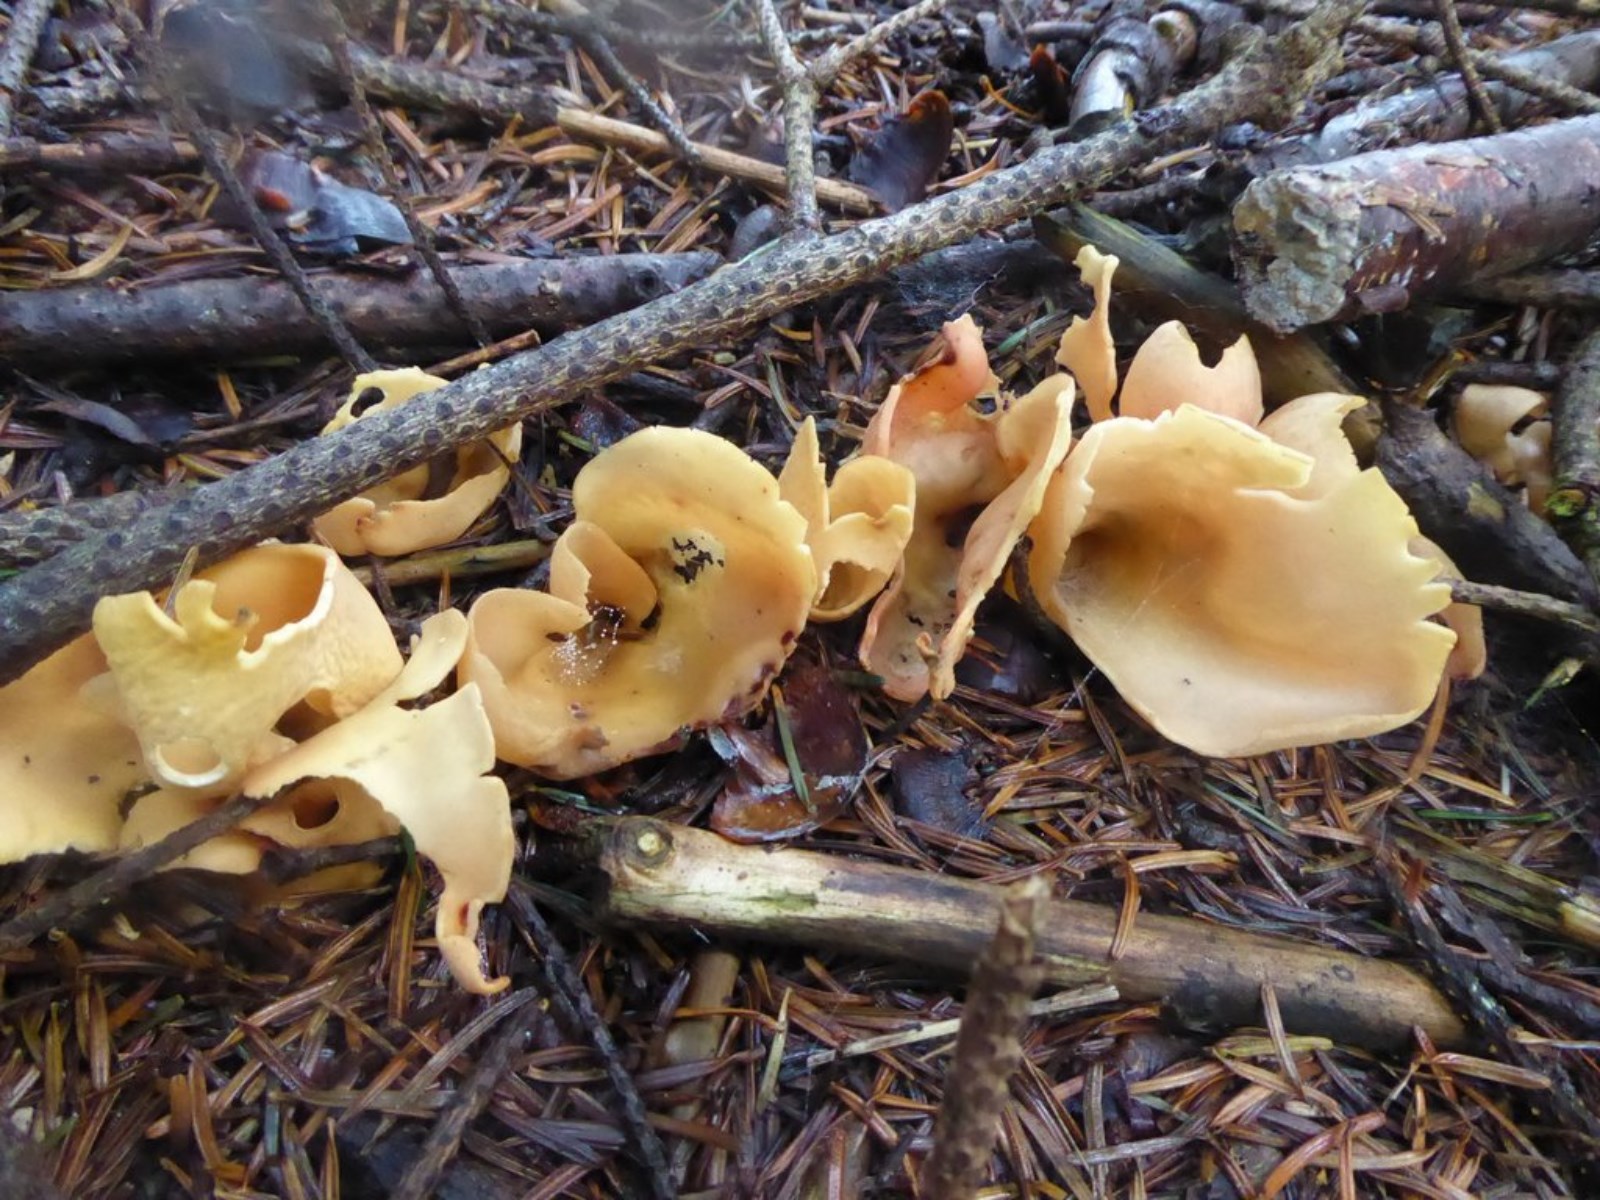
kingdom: Fungi
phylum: Ascomycota
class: Pezizomycetes
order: Pezizales
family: Otideaceae
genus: Otidea
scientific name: Otidea onotica
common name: æsel-ørebæger
